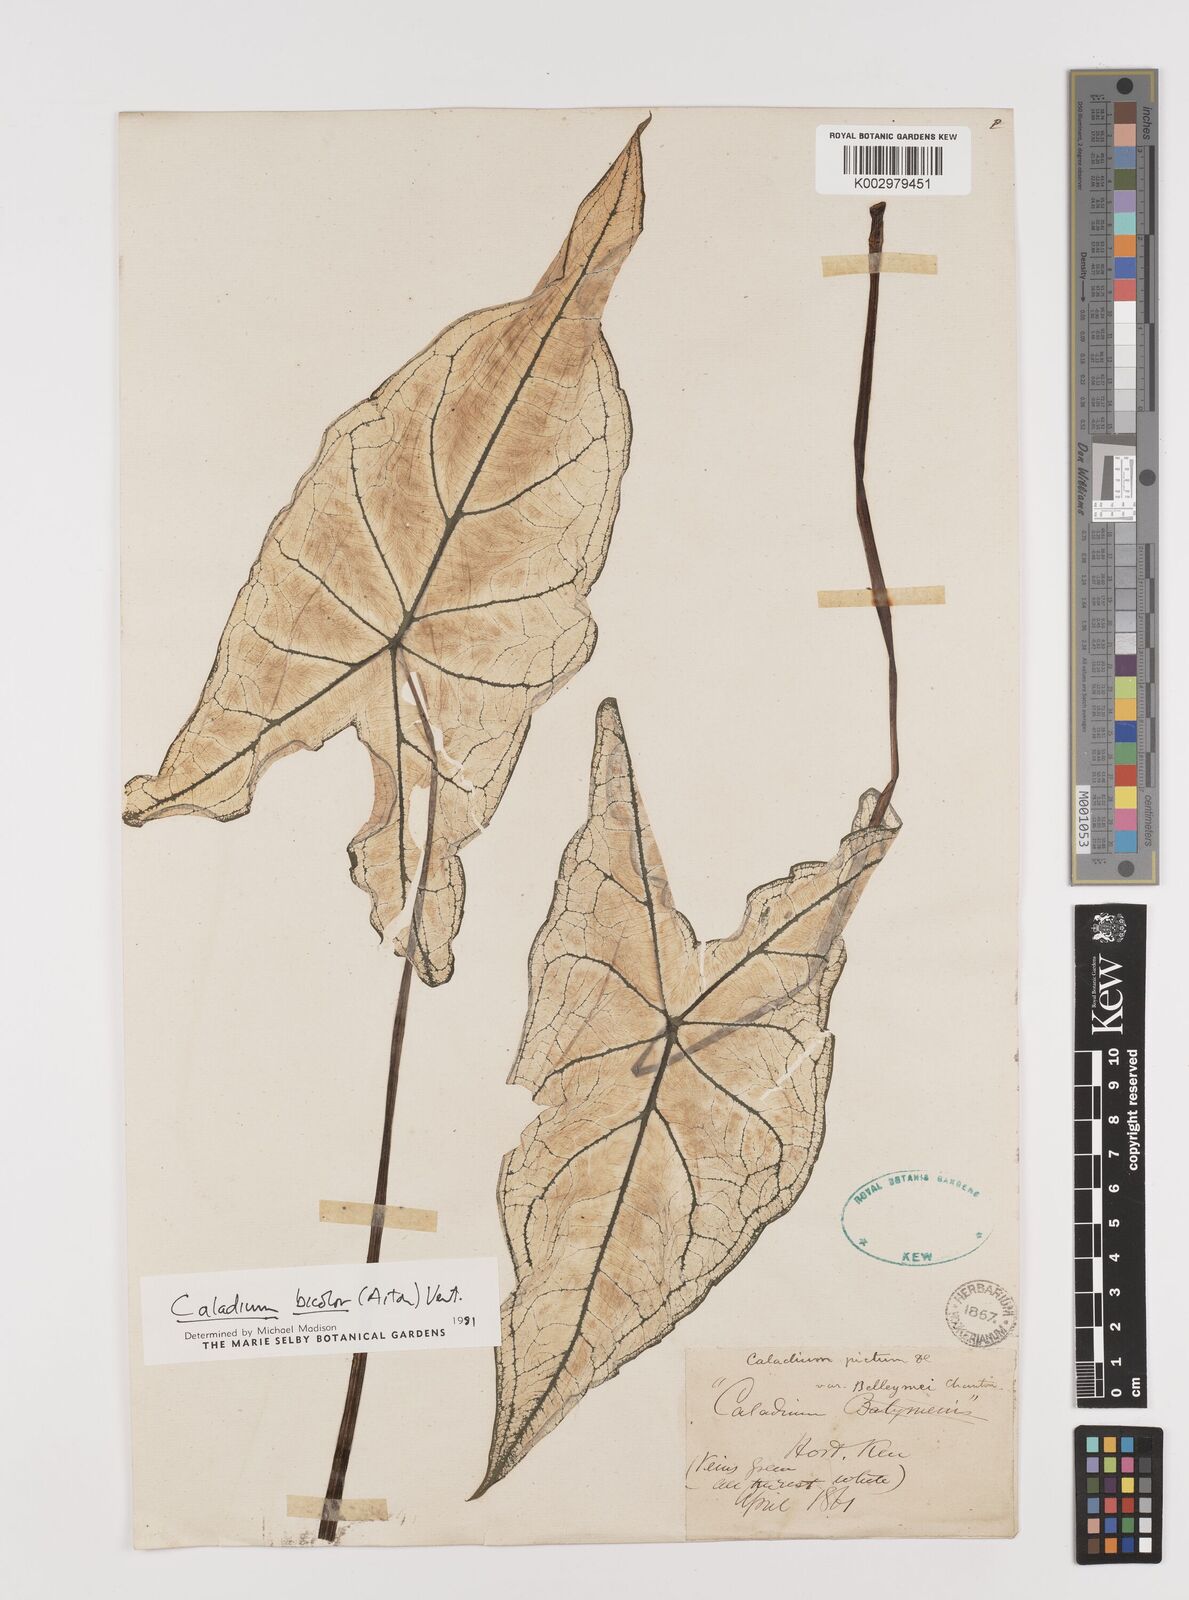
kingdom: Plantae
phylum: Tracheophyta
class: Liliopsida
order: Alismatales
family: Araceae
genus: Caladium
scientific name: Caladium bicolor
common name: Artist's pallet
